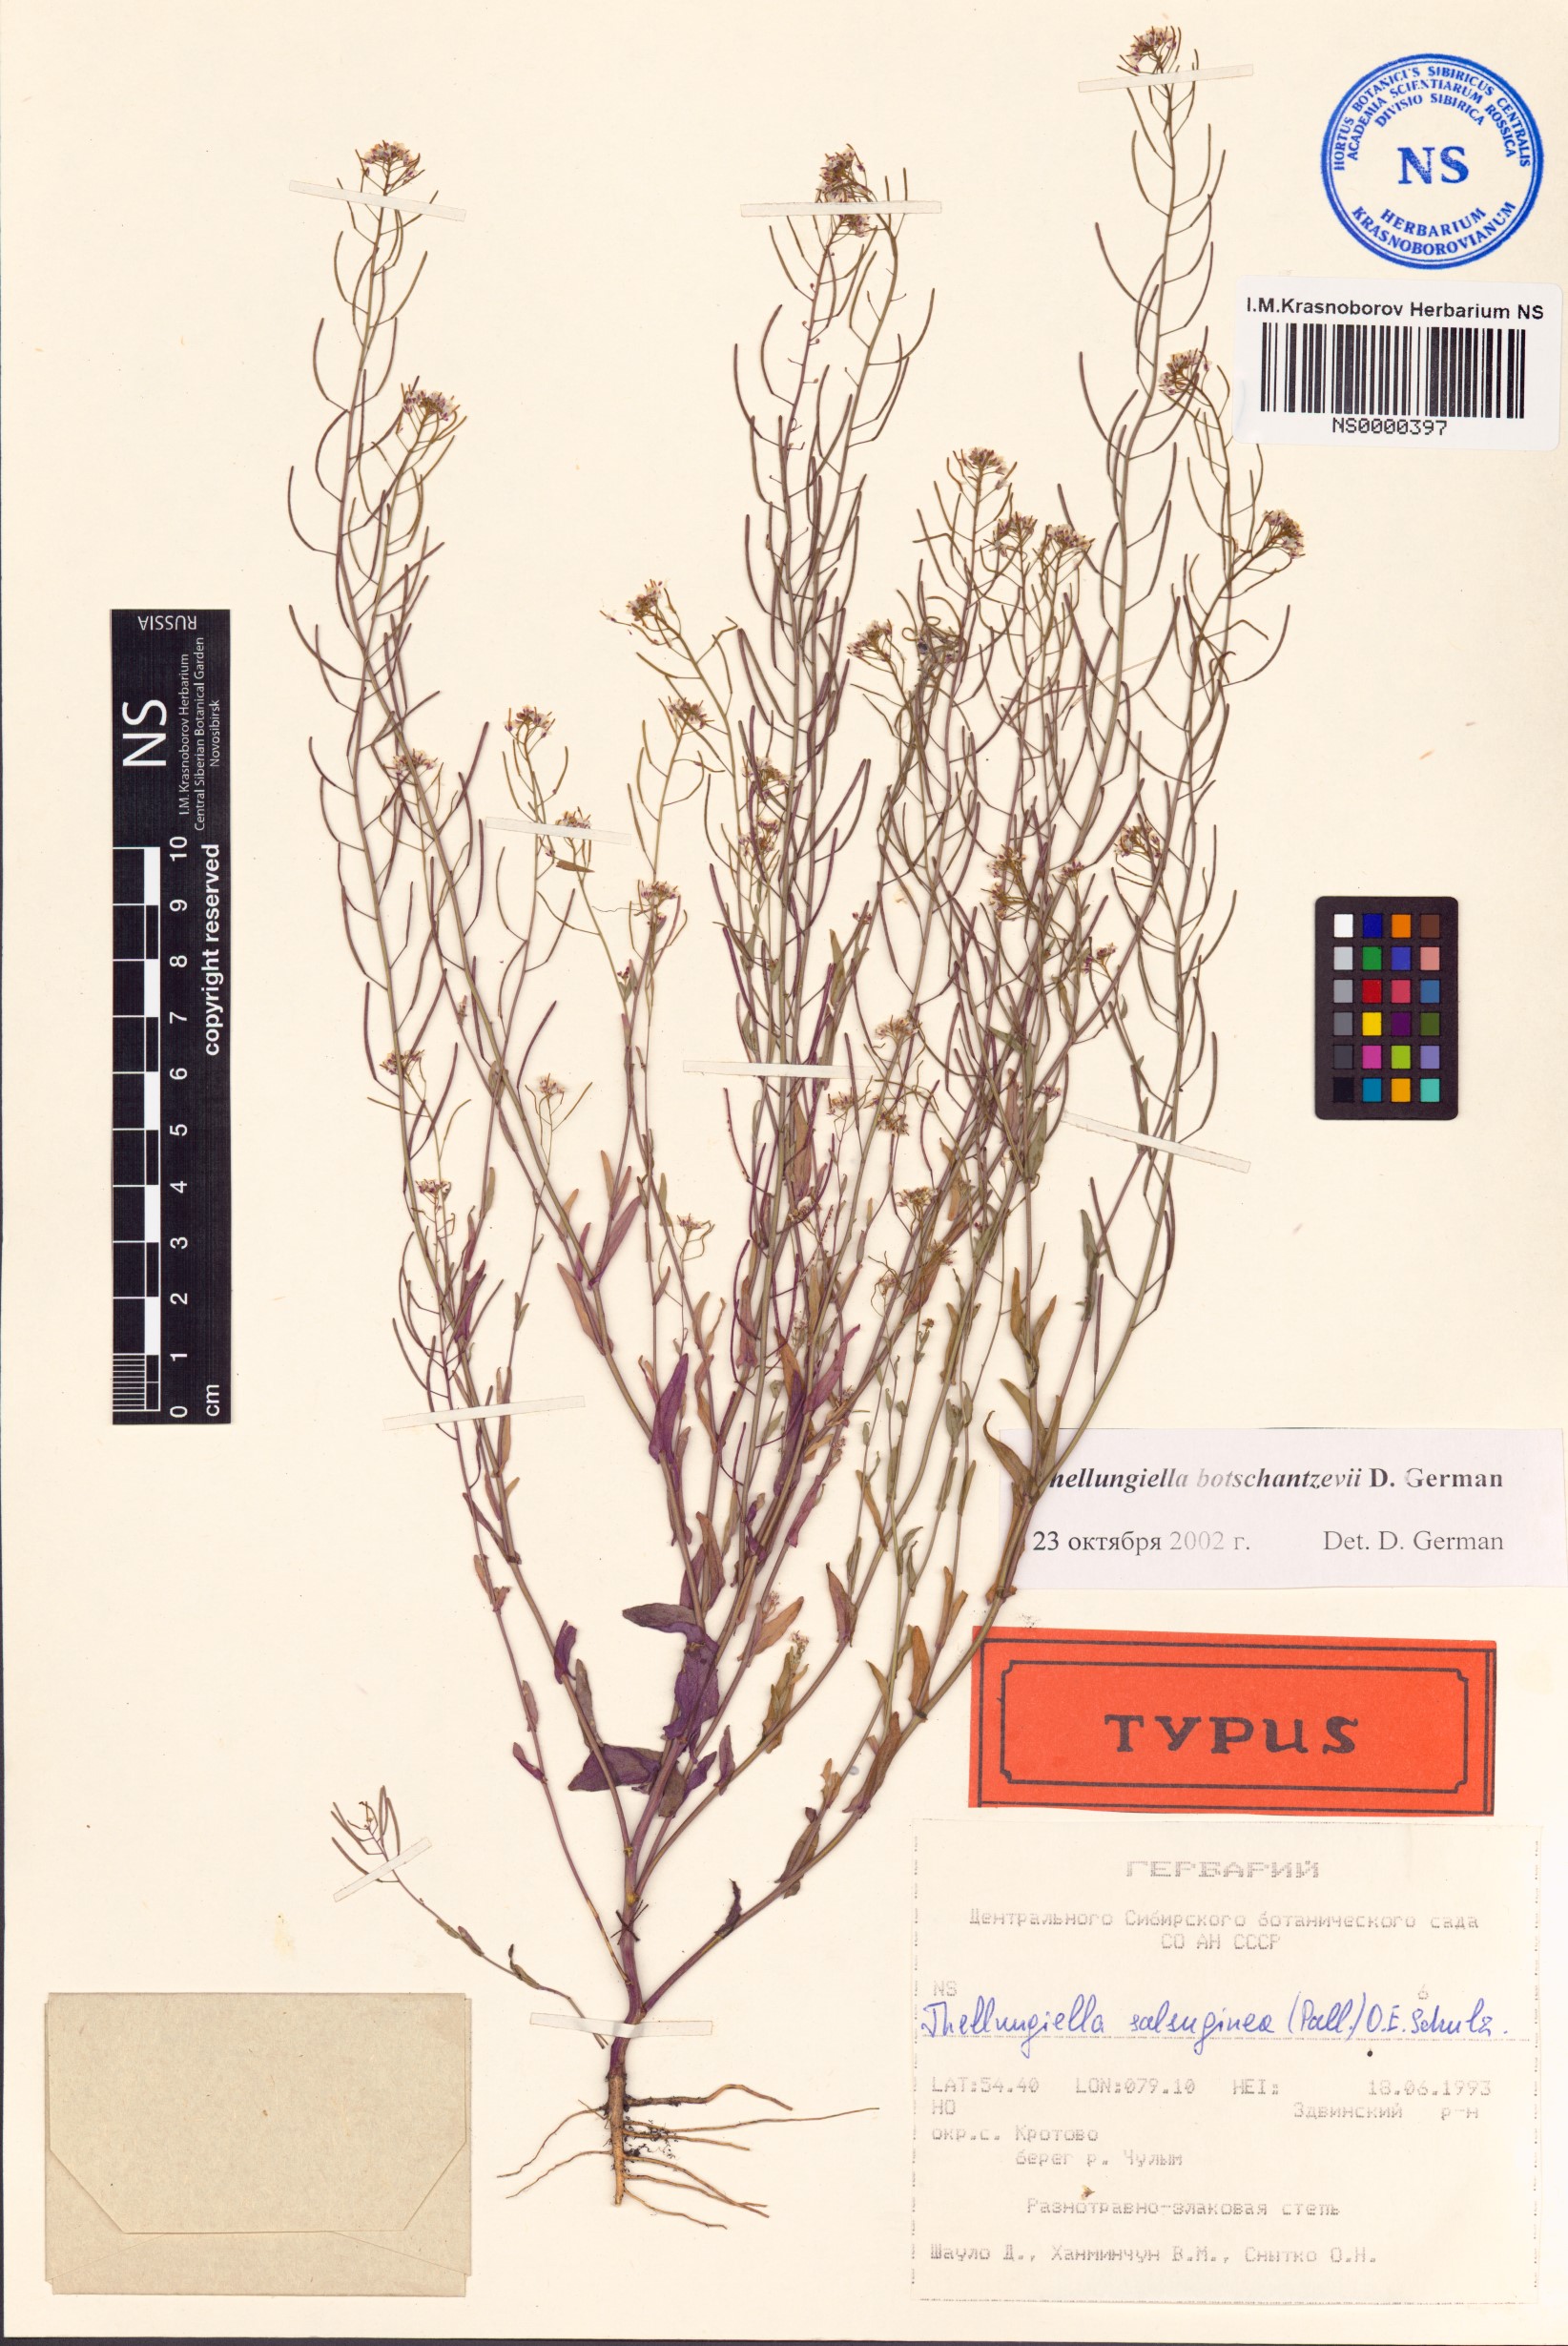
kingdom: Plantae
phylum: Tracheophyta
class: Magnoliopsida
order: Brassicales
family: Brassicaceae
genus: Eutrema
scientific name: Eutrema botschantzevii
